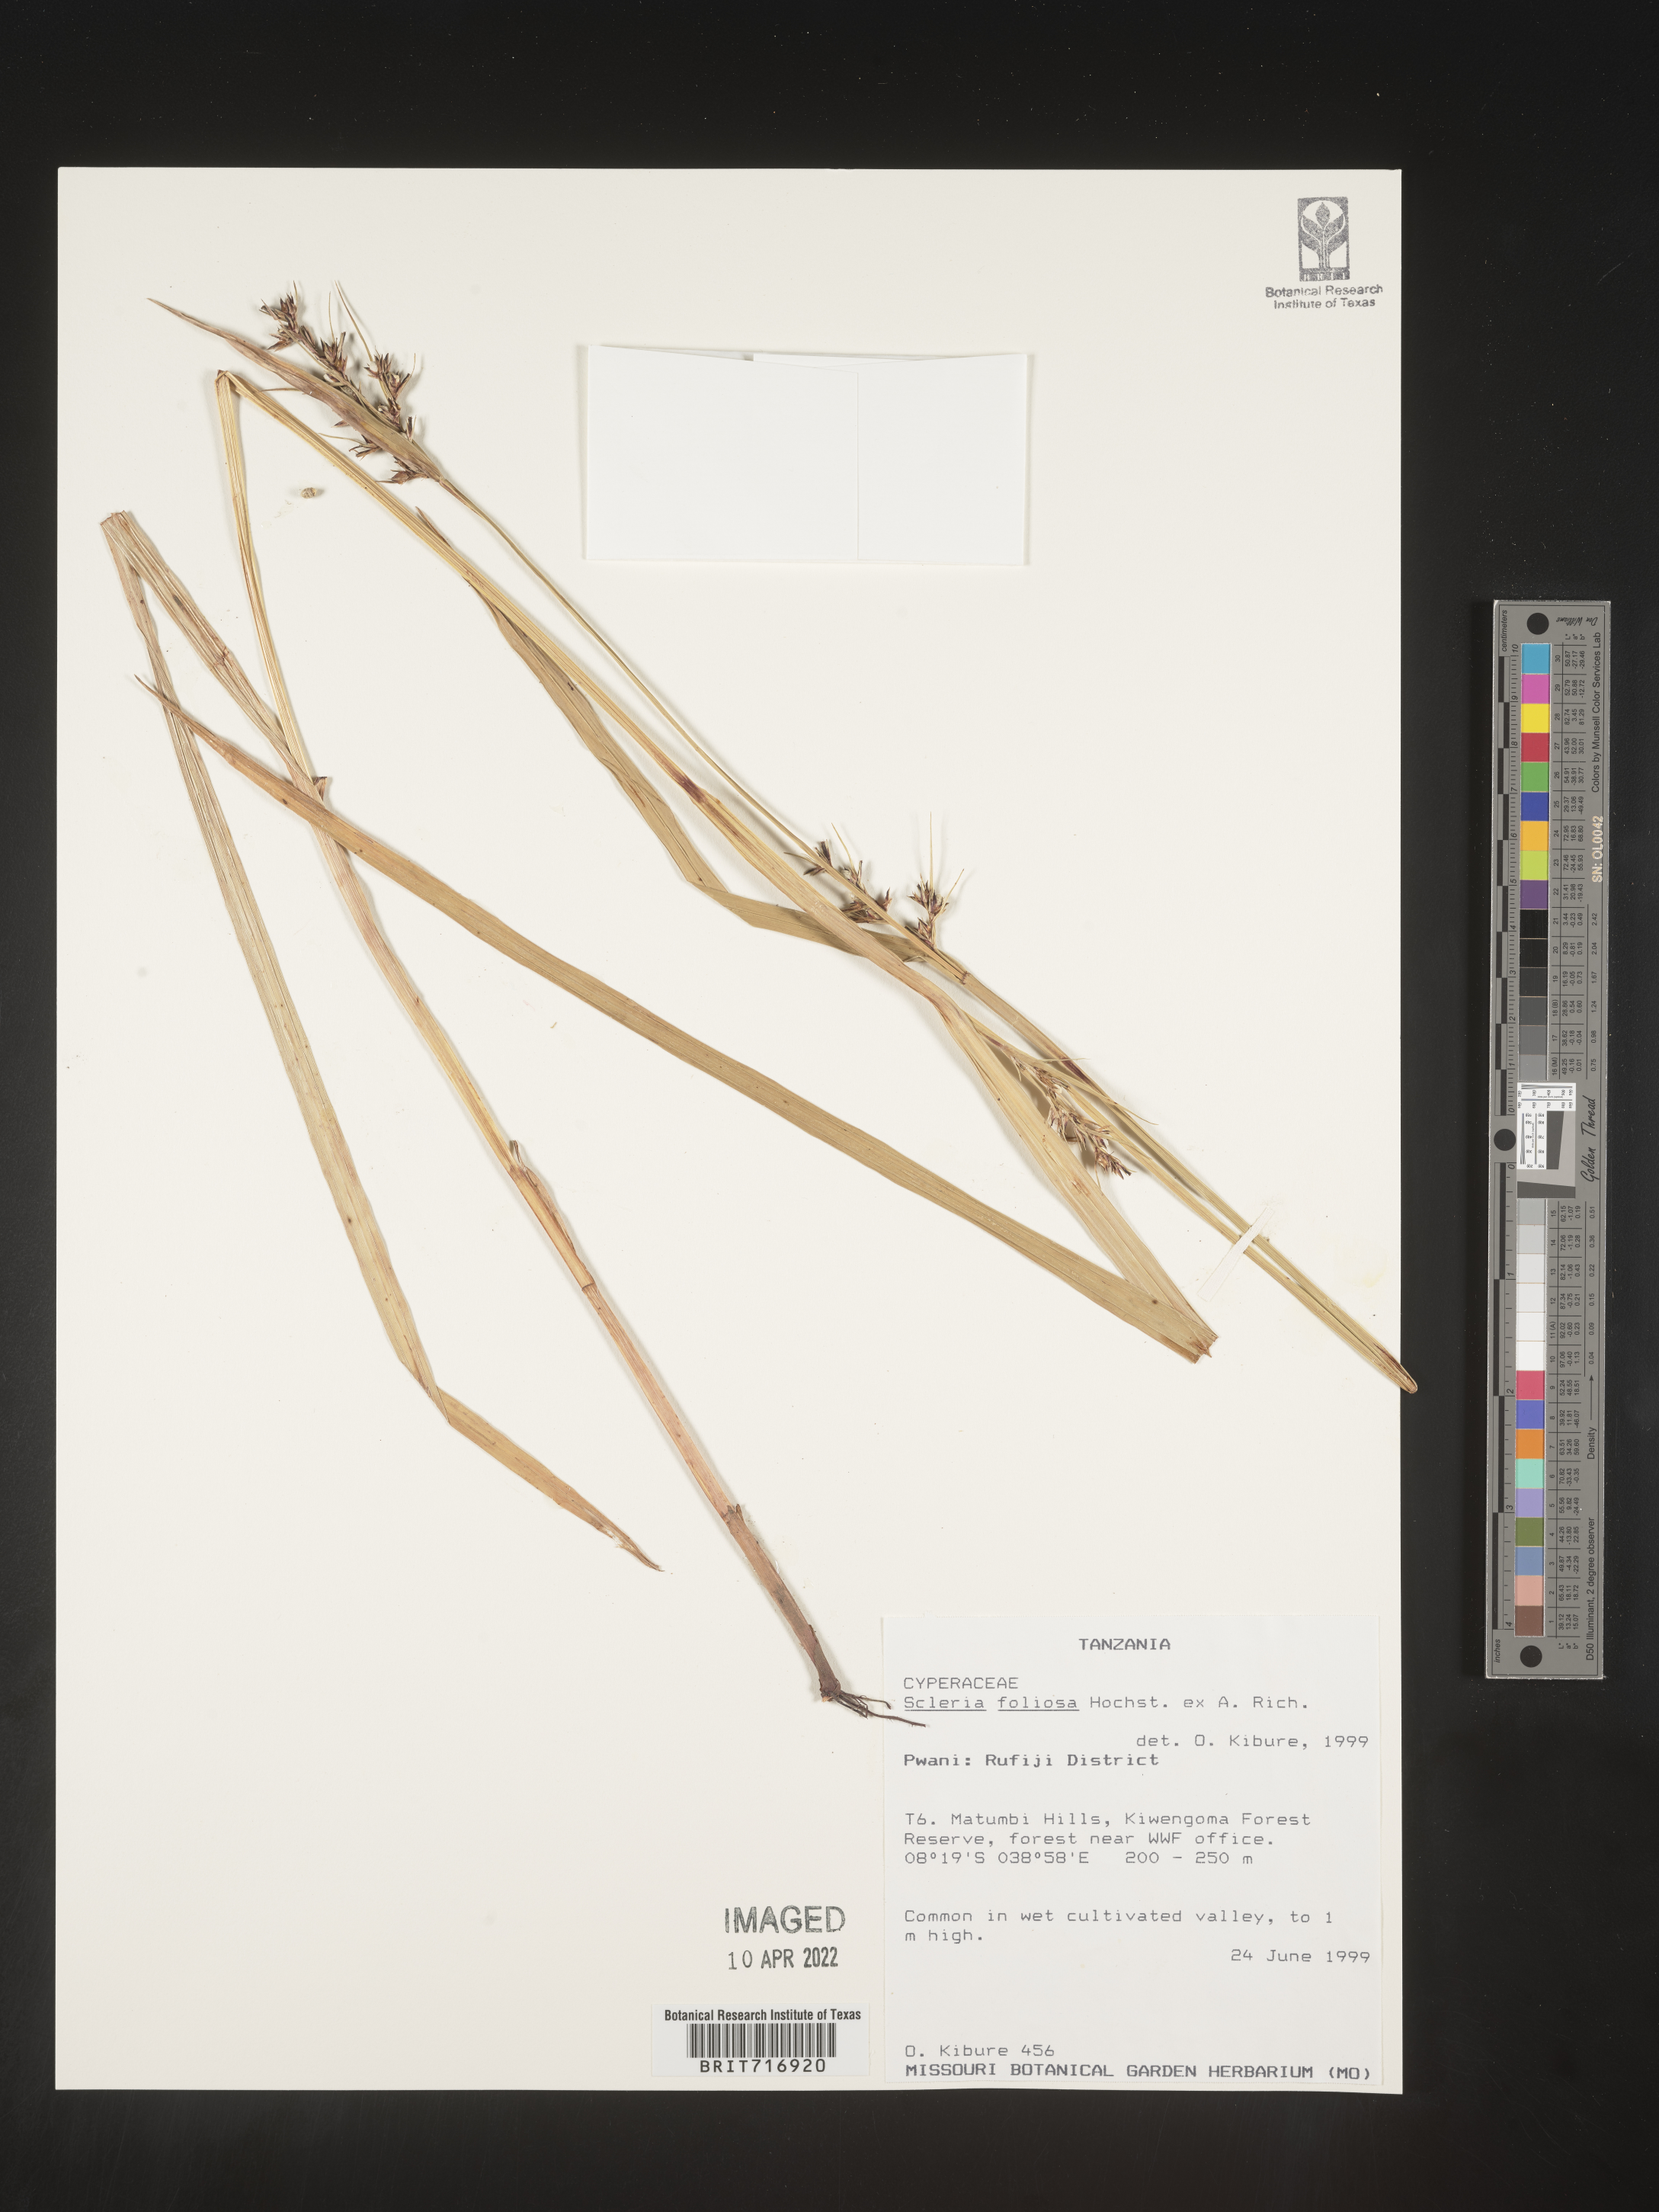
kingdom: Plantae
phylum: Tracheophyta
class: Liliopsida
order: Poales
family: Cyperaceae
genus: Scleria
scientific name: Scleria
